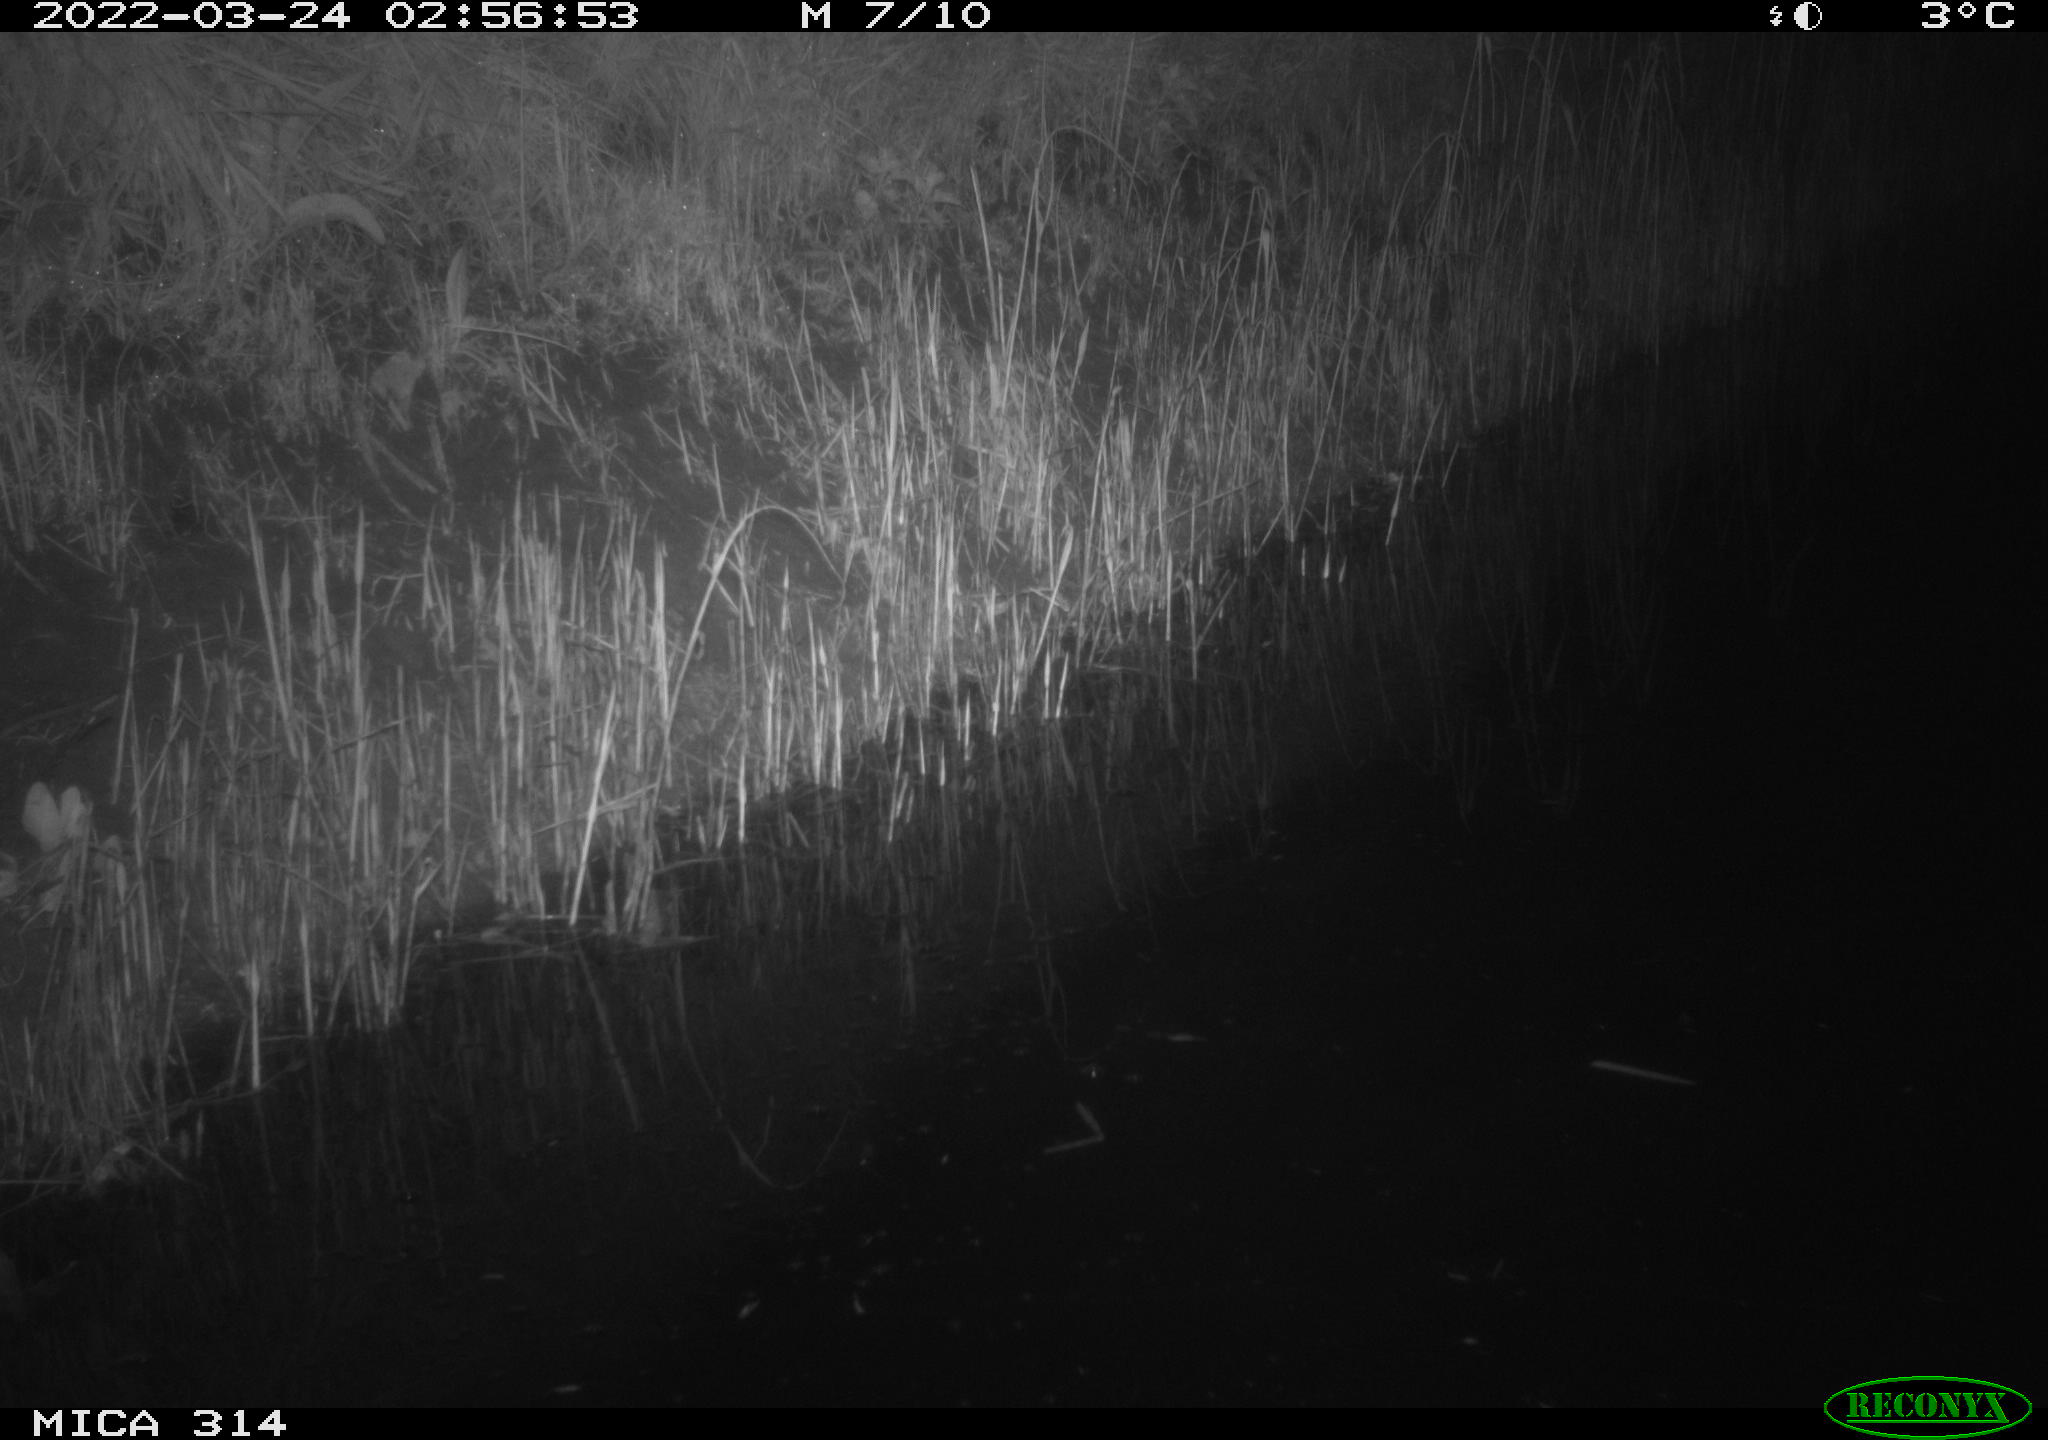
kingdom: Animalia
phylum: Chordata
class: Mammalia
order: Rodentia
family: Muridae
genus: Rattus
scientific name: Rattus norvegicus
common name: Brown rat
